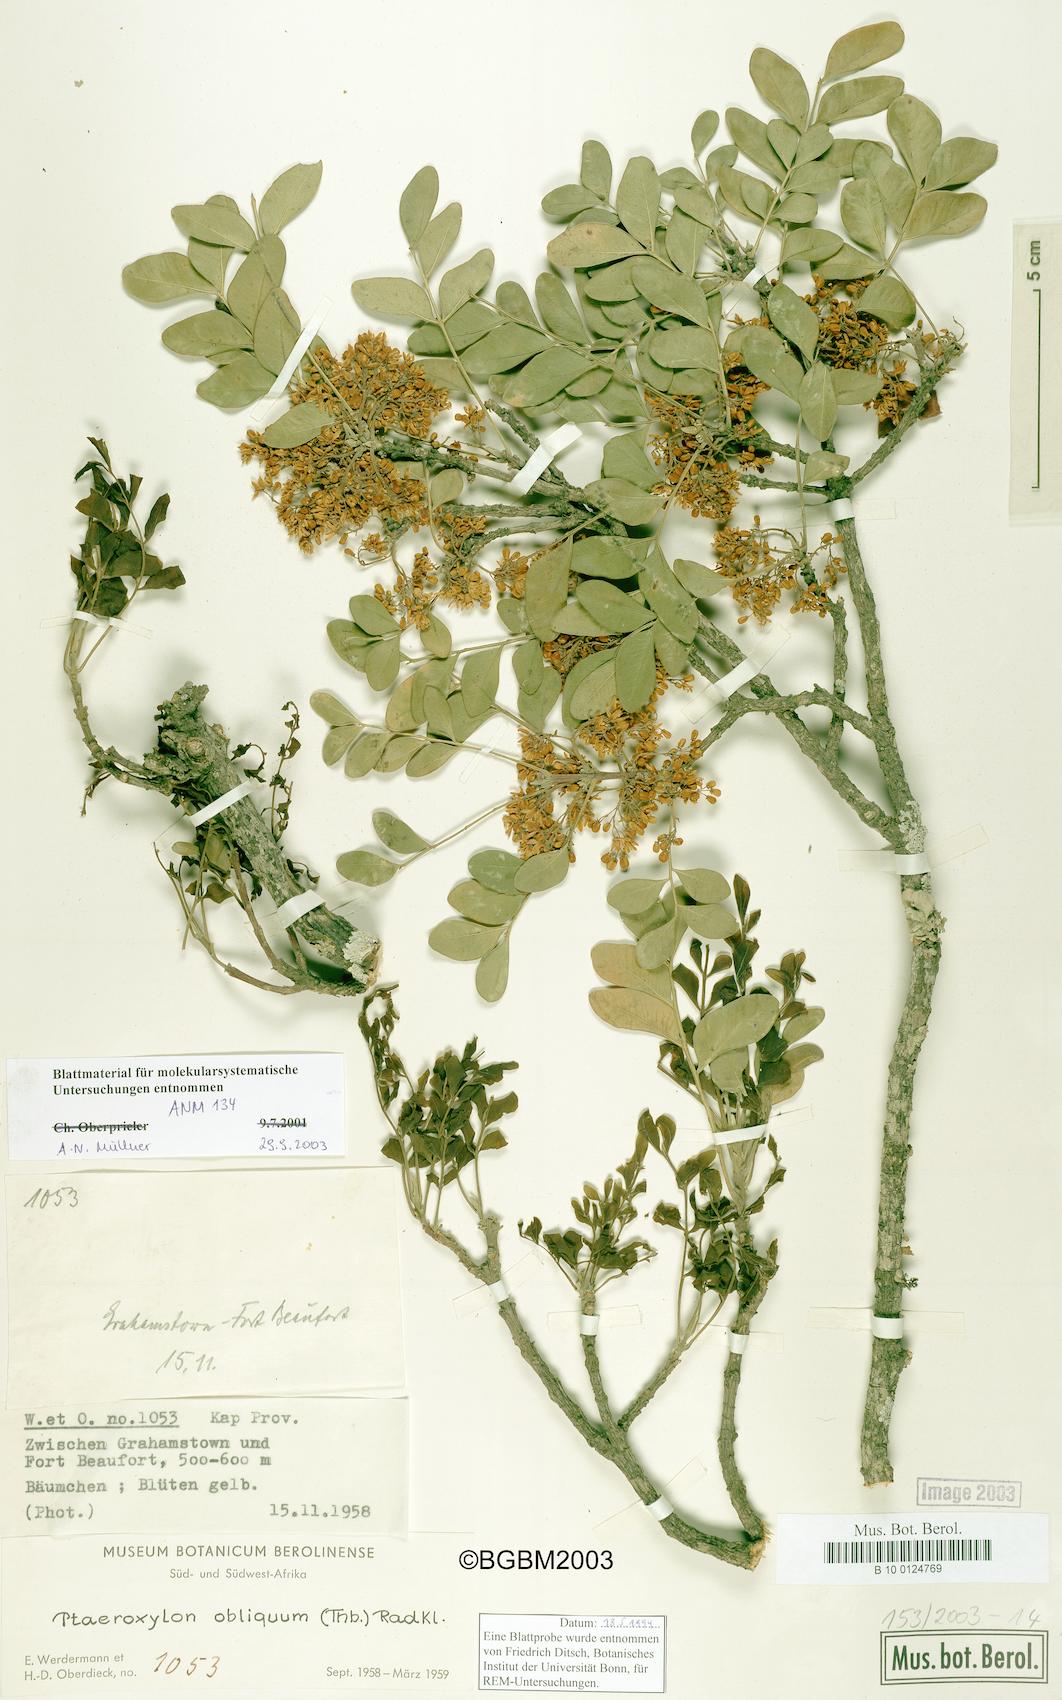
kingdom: Plantae
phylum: Tracheophyta
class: Magnoliopsida
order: Sapindales
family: Rutaceae
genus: Ptaeroxylon
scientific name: Ptaeroxylon obliquum
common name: Sneezewood
